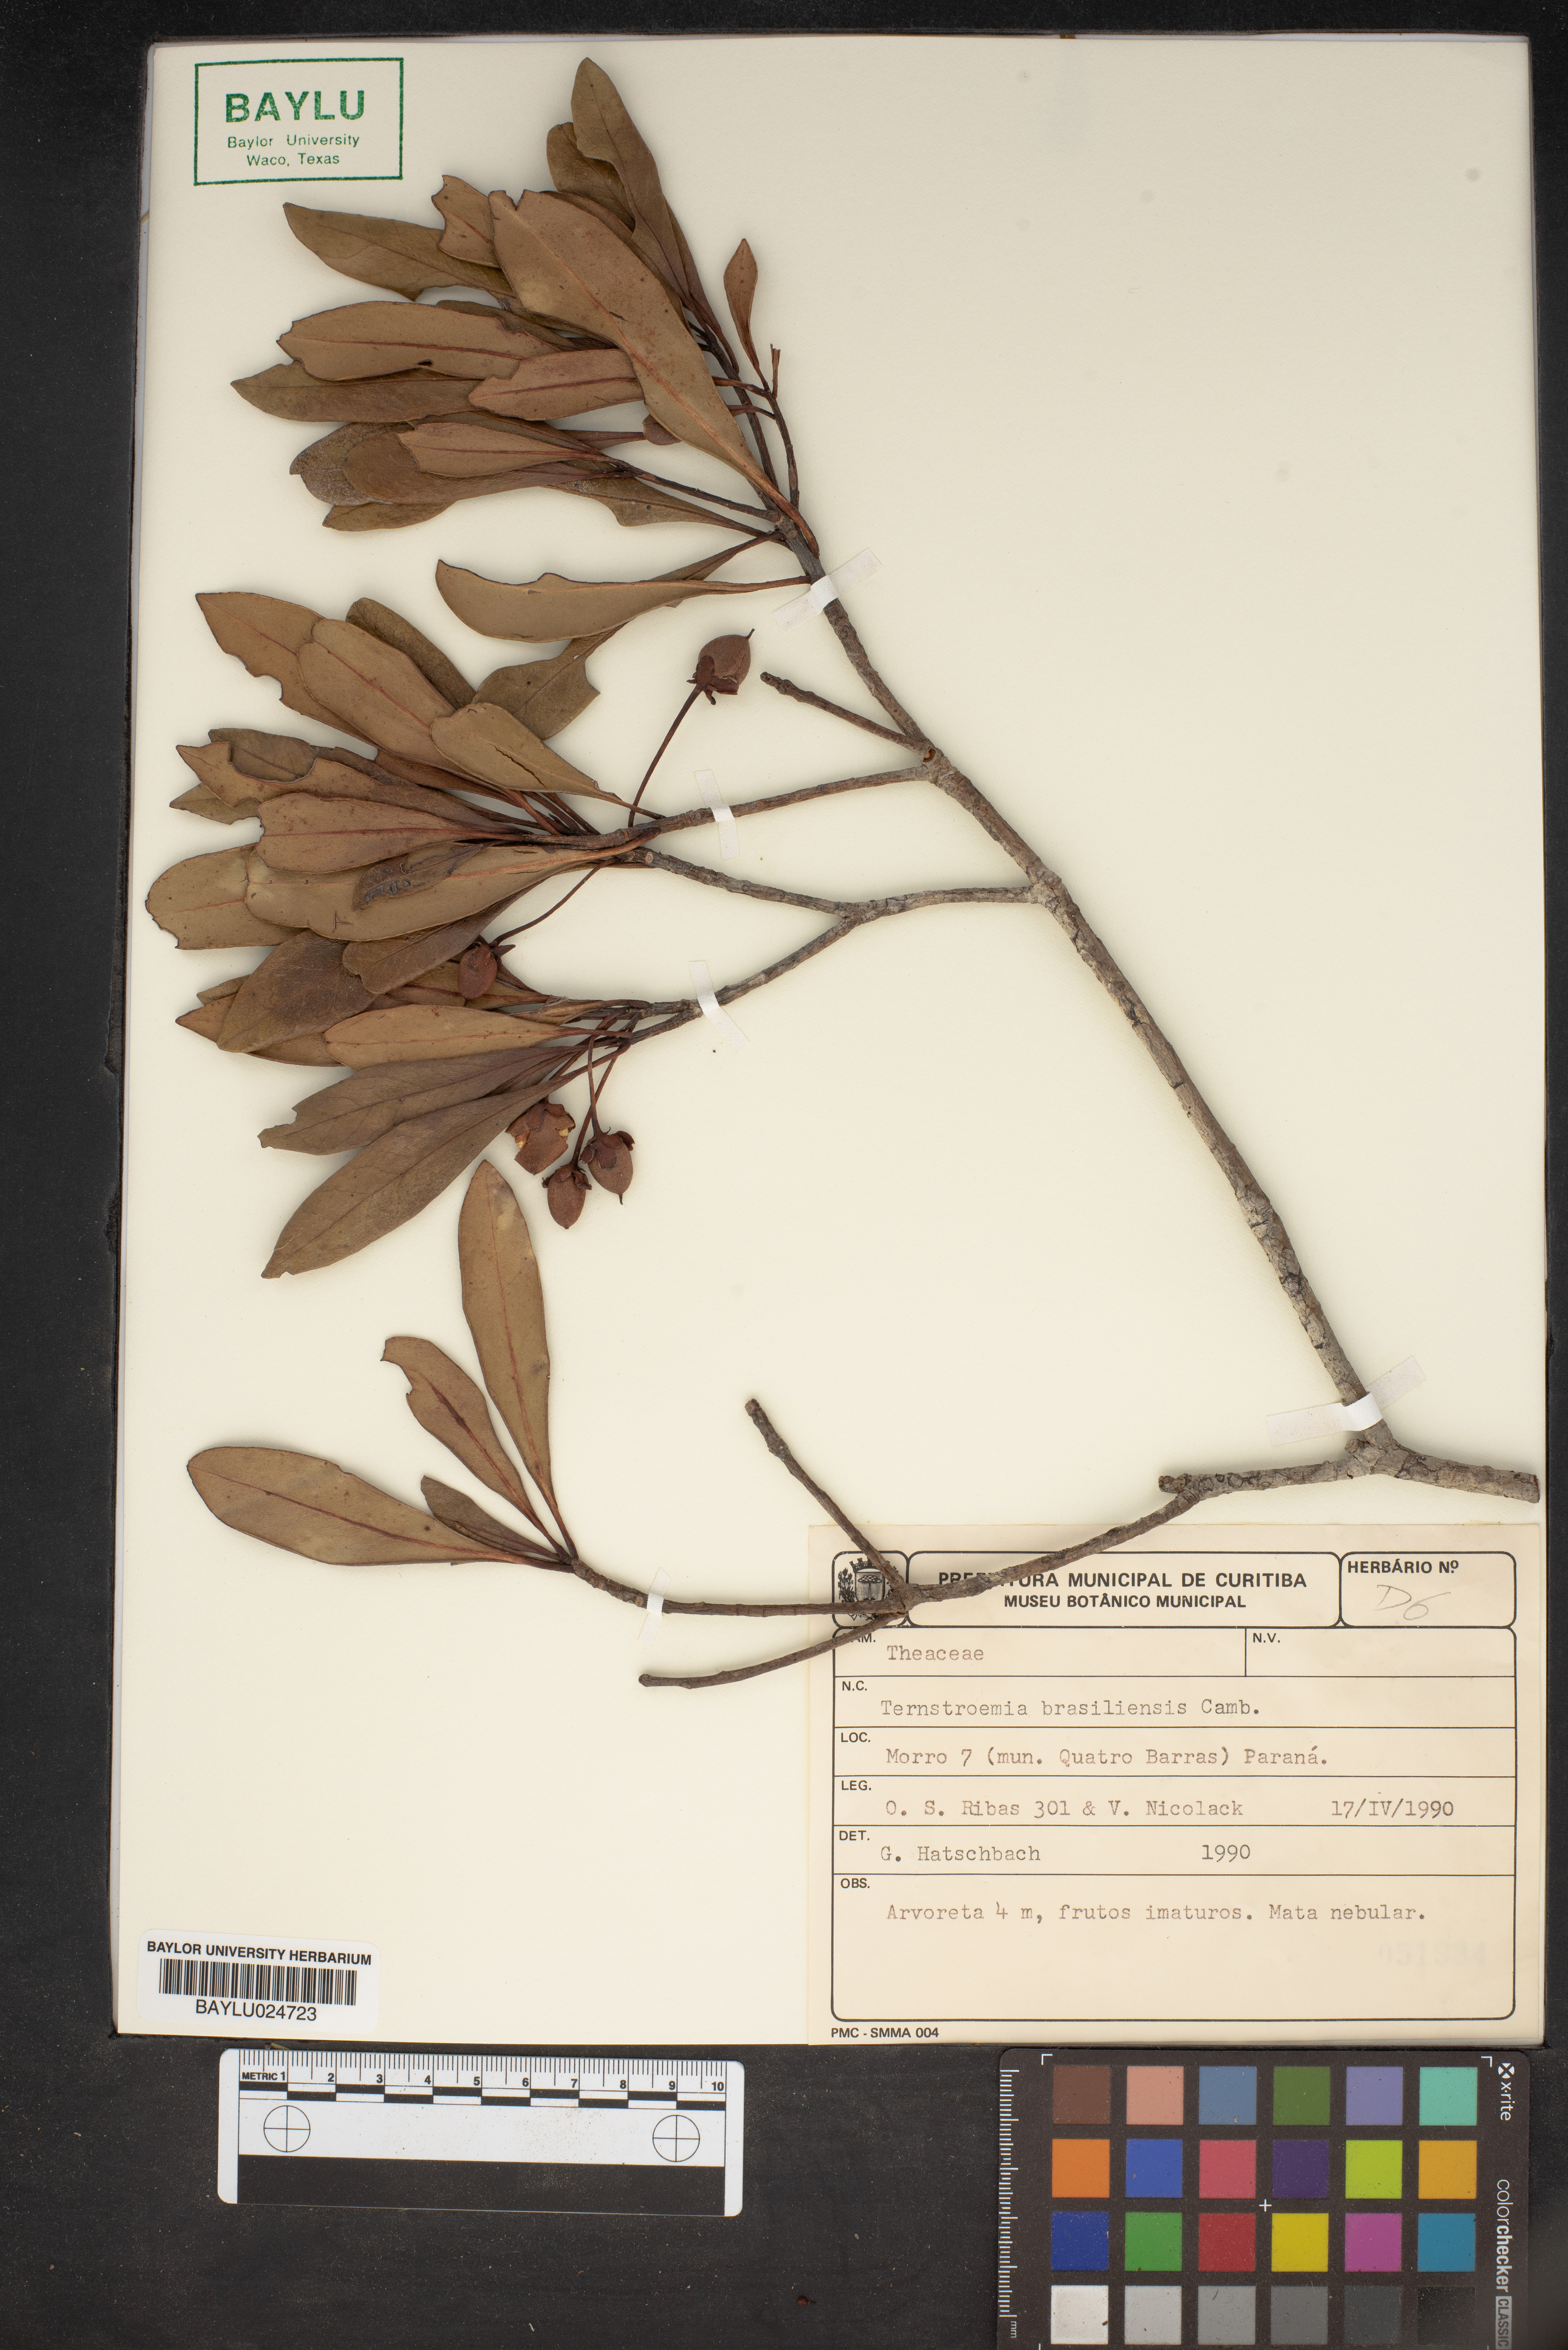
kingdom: Plantae
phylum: Tracheophyta
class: Magnoliopsida
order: Ericales
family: Pentaphylacaceae
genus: Ternstroemia
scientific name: Ternstroemia brasiliensis
